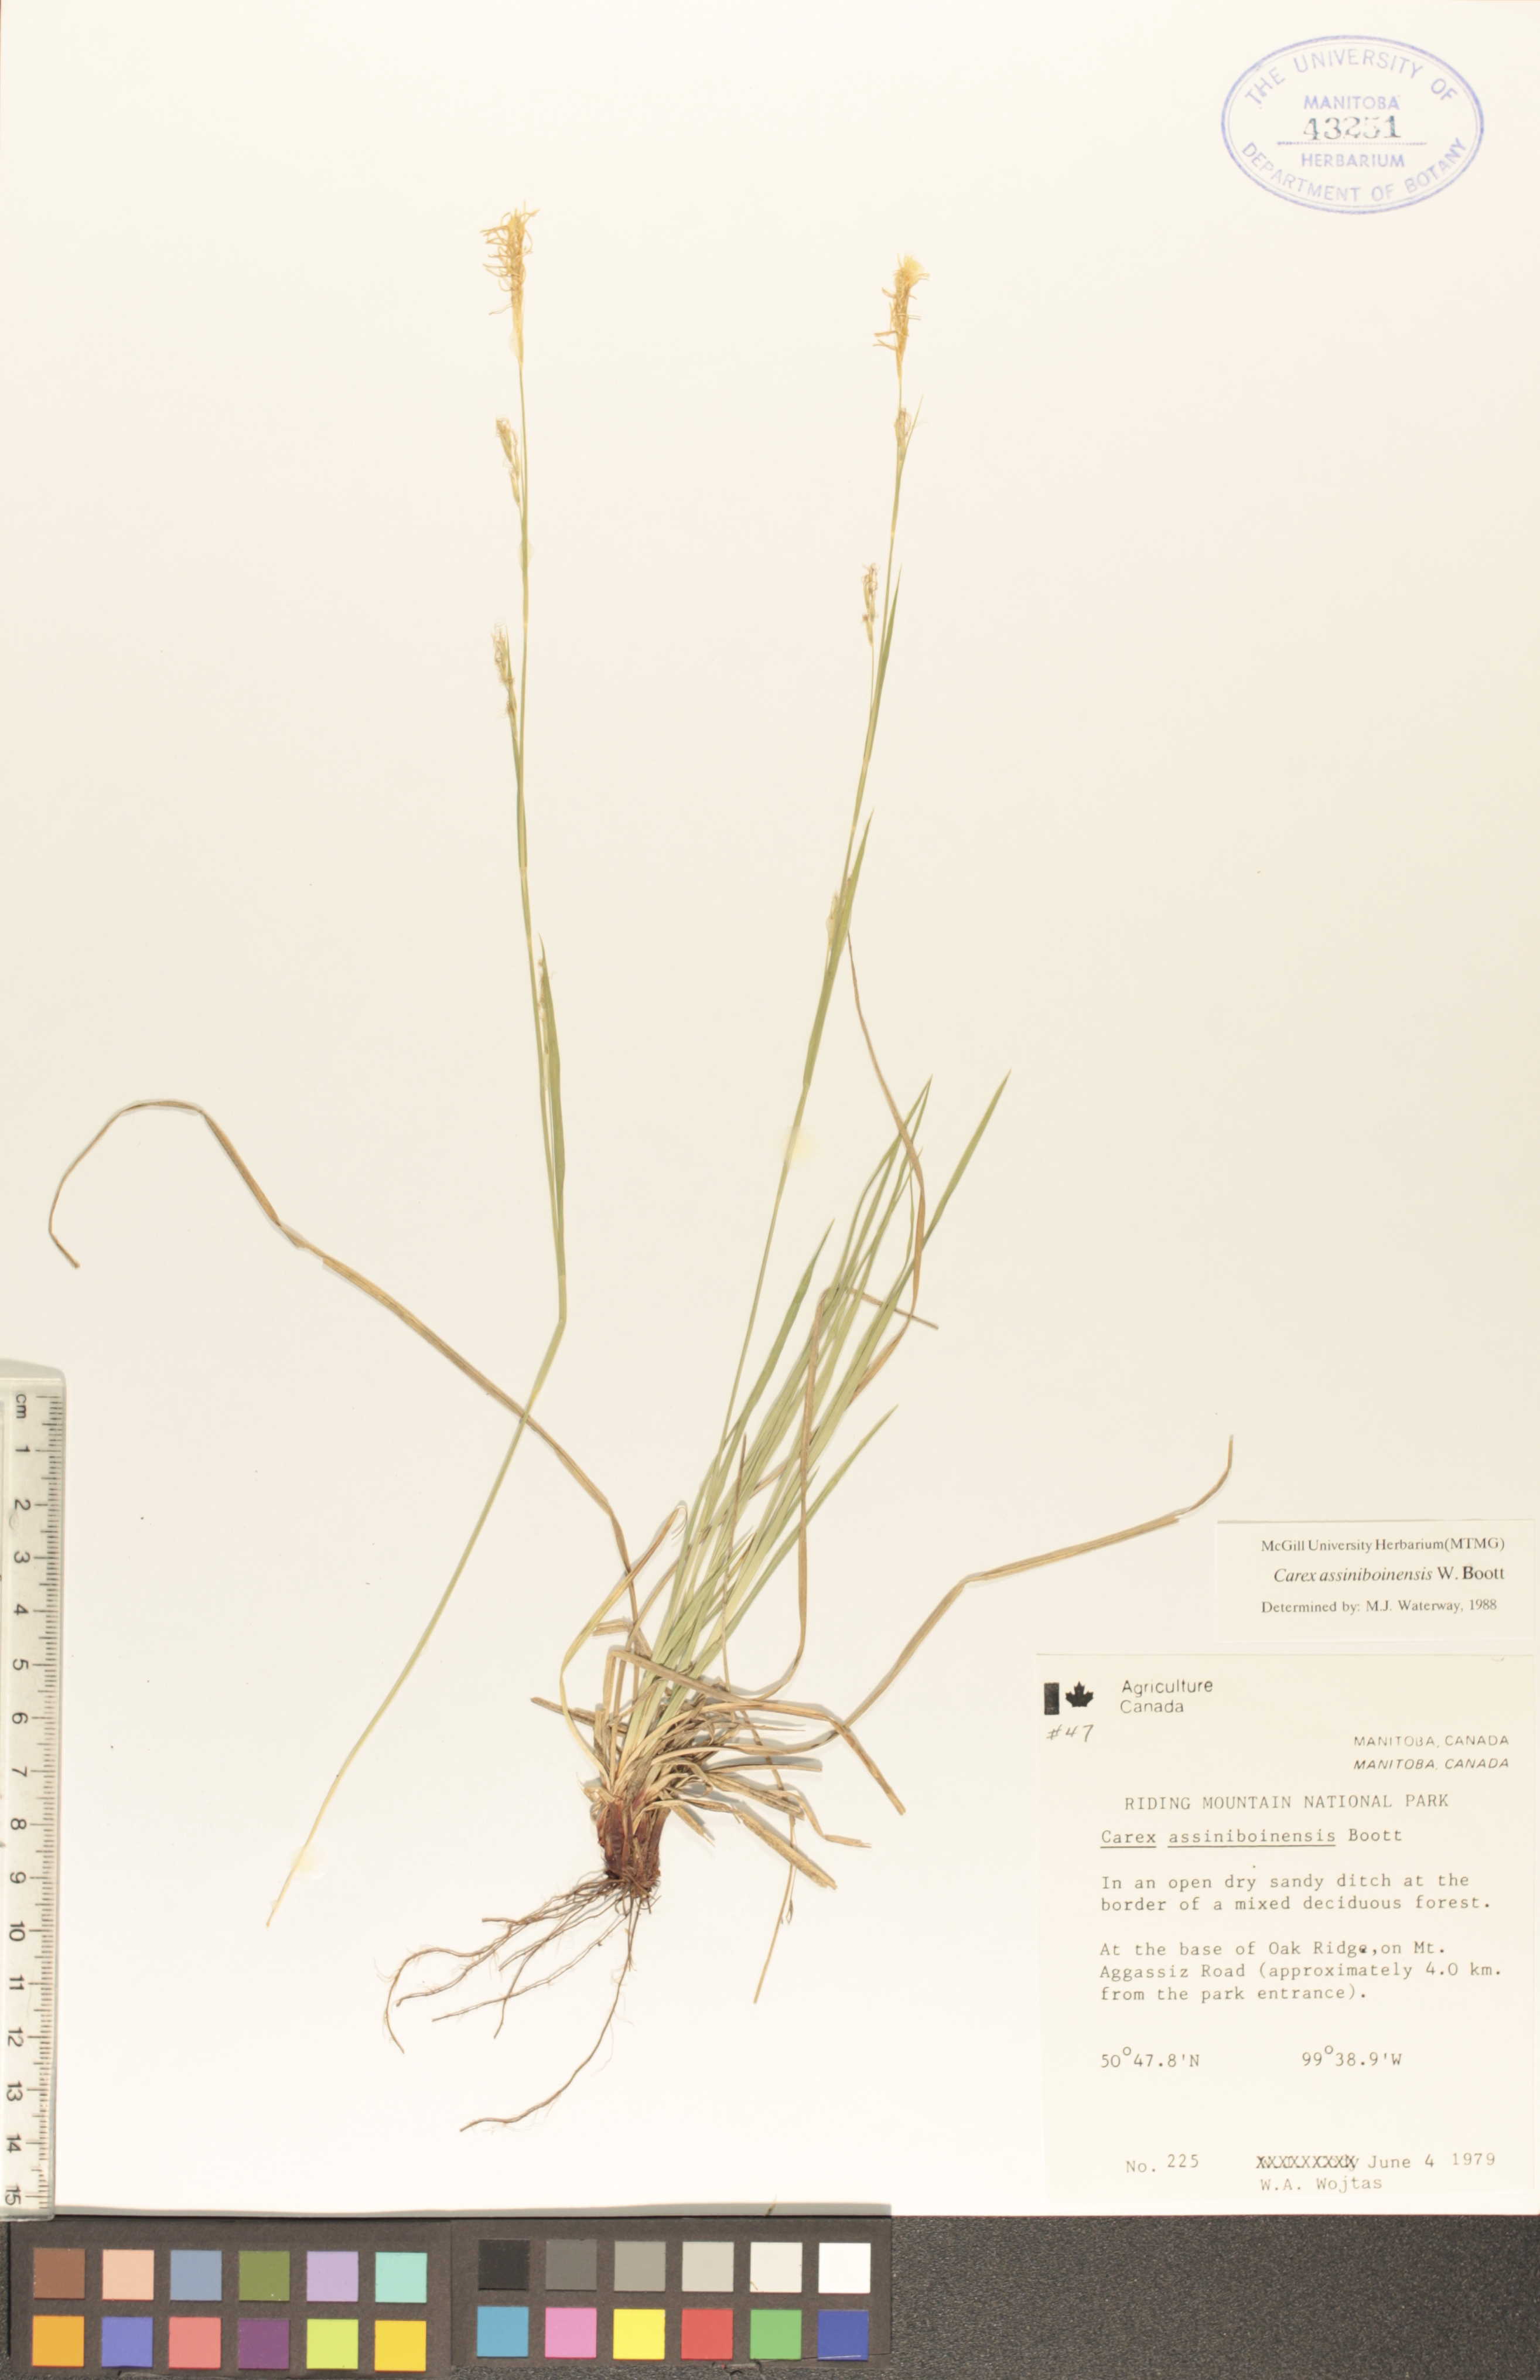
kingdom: Plantae
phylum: Tracheophyta
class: Liliopsida
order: Poales
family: Cyperaceae
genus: Carex
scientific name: Carex assiniboinensis
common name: Assiniboia sedge
